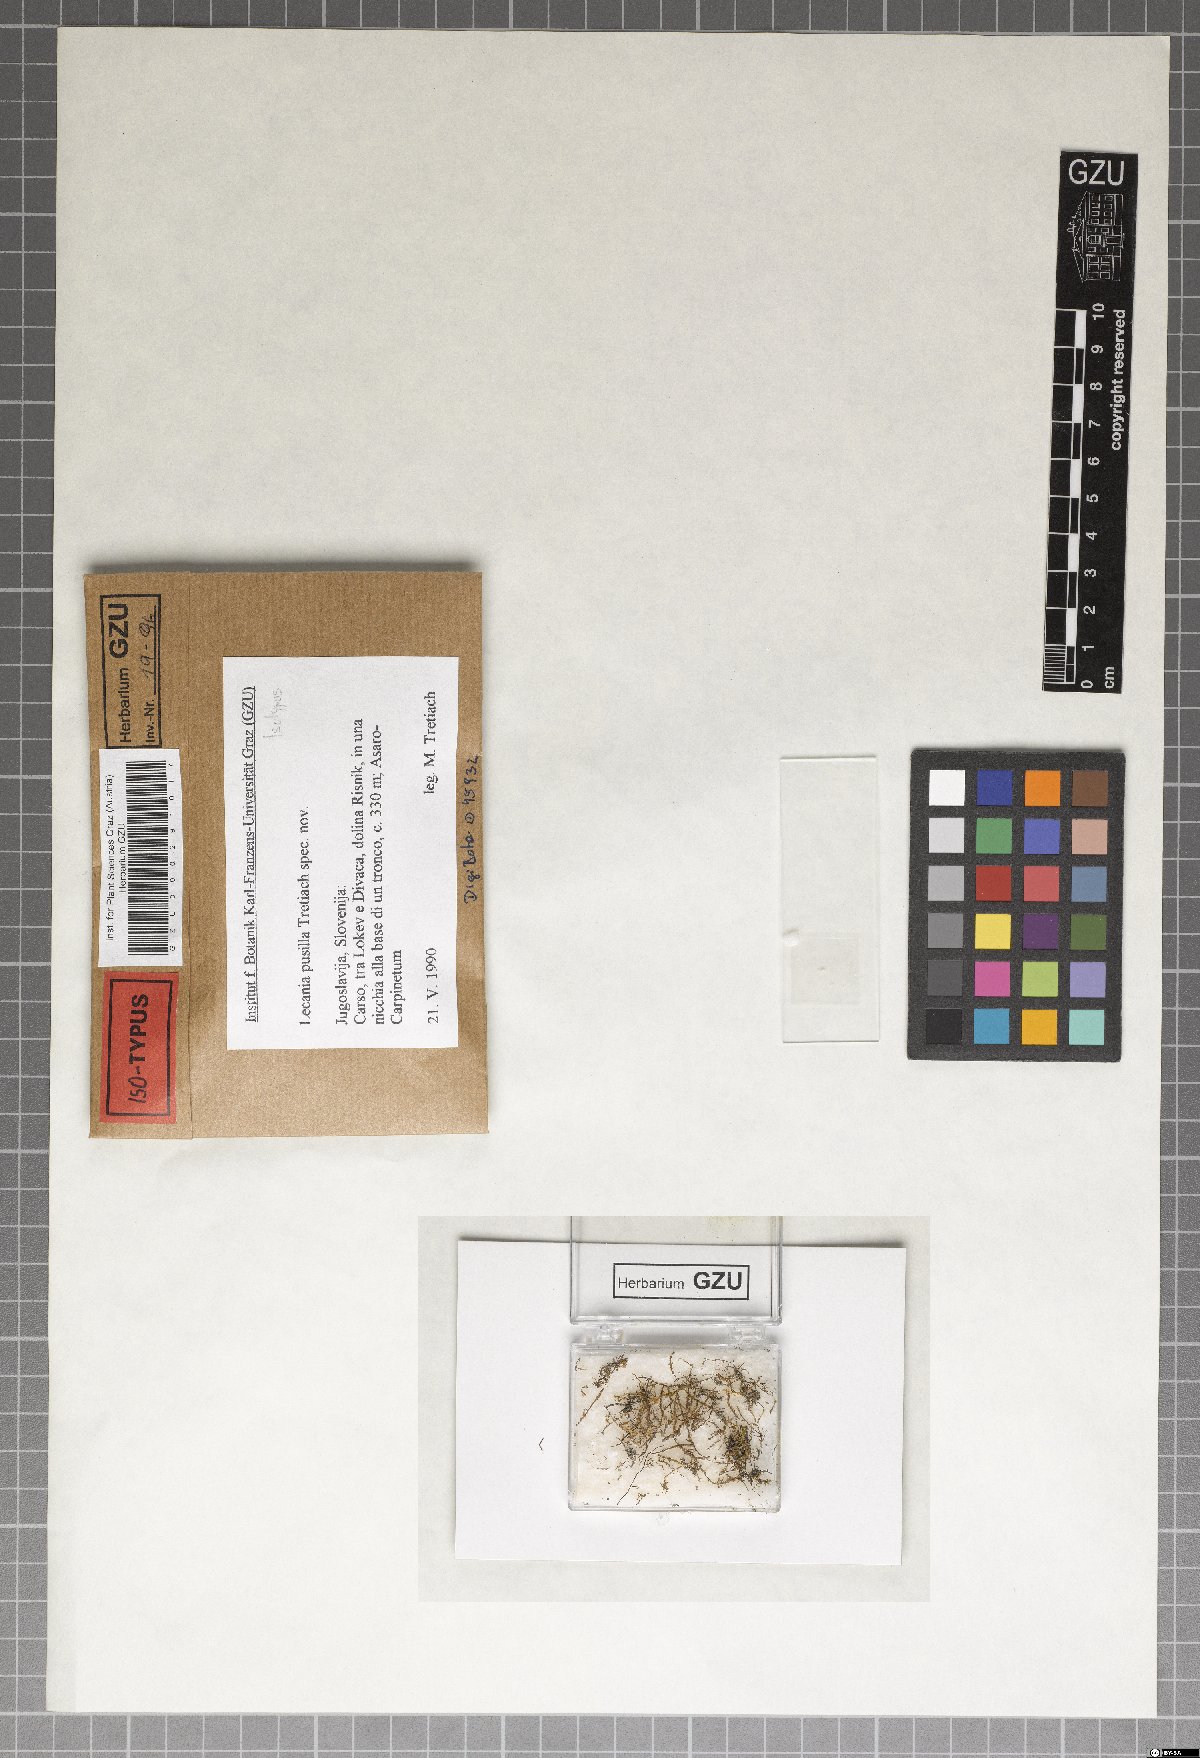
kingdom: Fungi
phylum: Ascomycota
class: Lecanoromycetes
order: Lecanorales
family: Ramalinaceae
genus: Lecania
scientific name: Lecania
